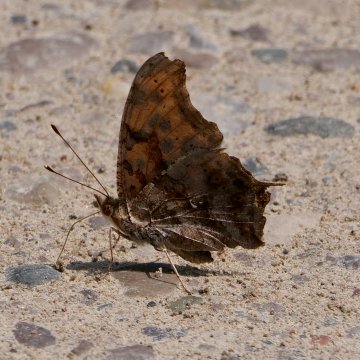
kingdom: Animalia
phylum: Arthropoda
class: Insecta
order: Lepidoptera
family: Nymphalidae
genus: Polygonia
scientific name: Polygonia interrogationis
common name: Question Mark
